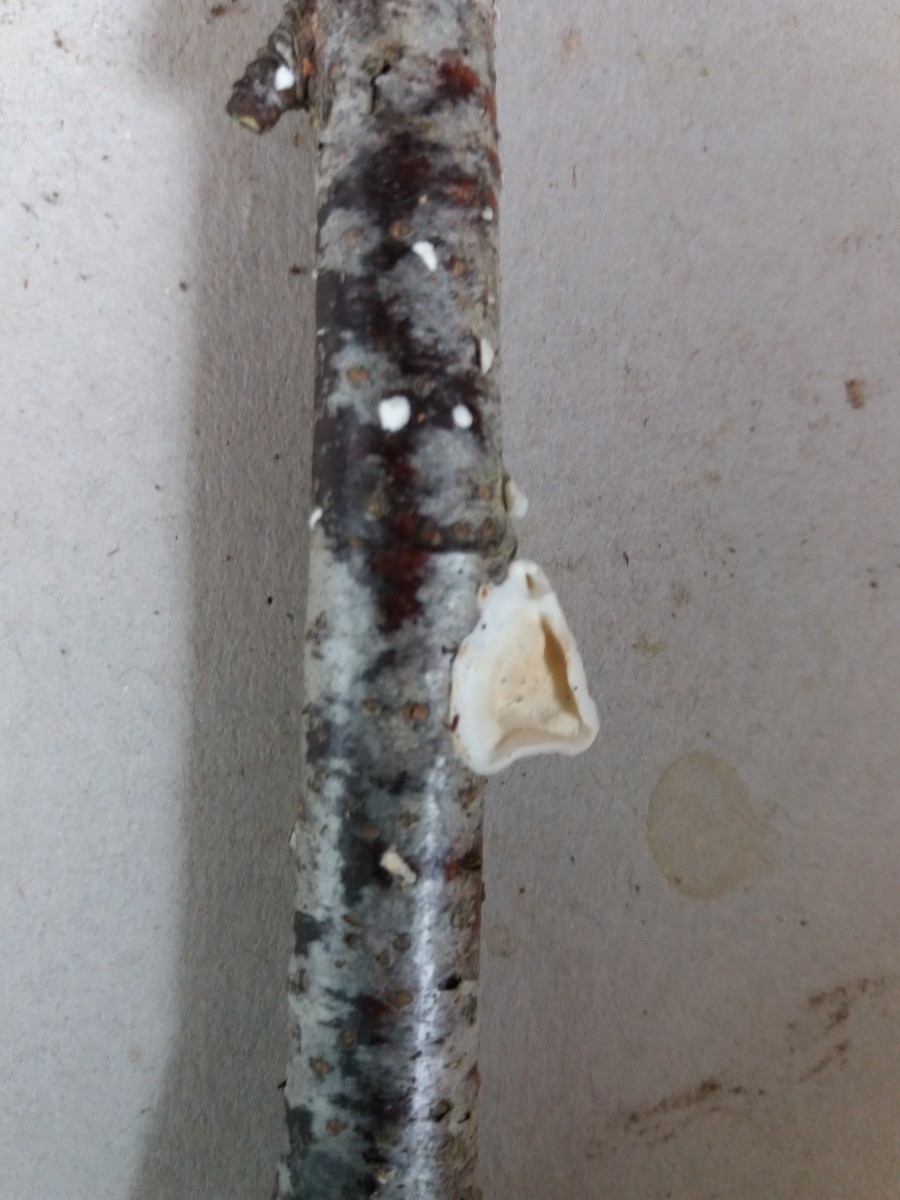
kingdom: Fungi
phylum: Basidiomycota
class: Agaricomycetes
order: Polyporales
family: Irpicaceae
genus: Byssomerulius
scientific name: Byssomerulius corium
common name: læder-åresvamp
